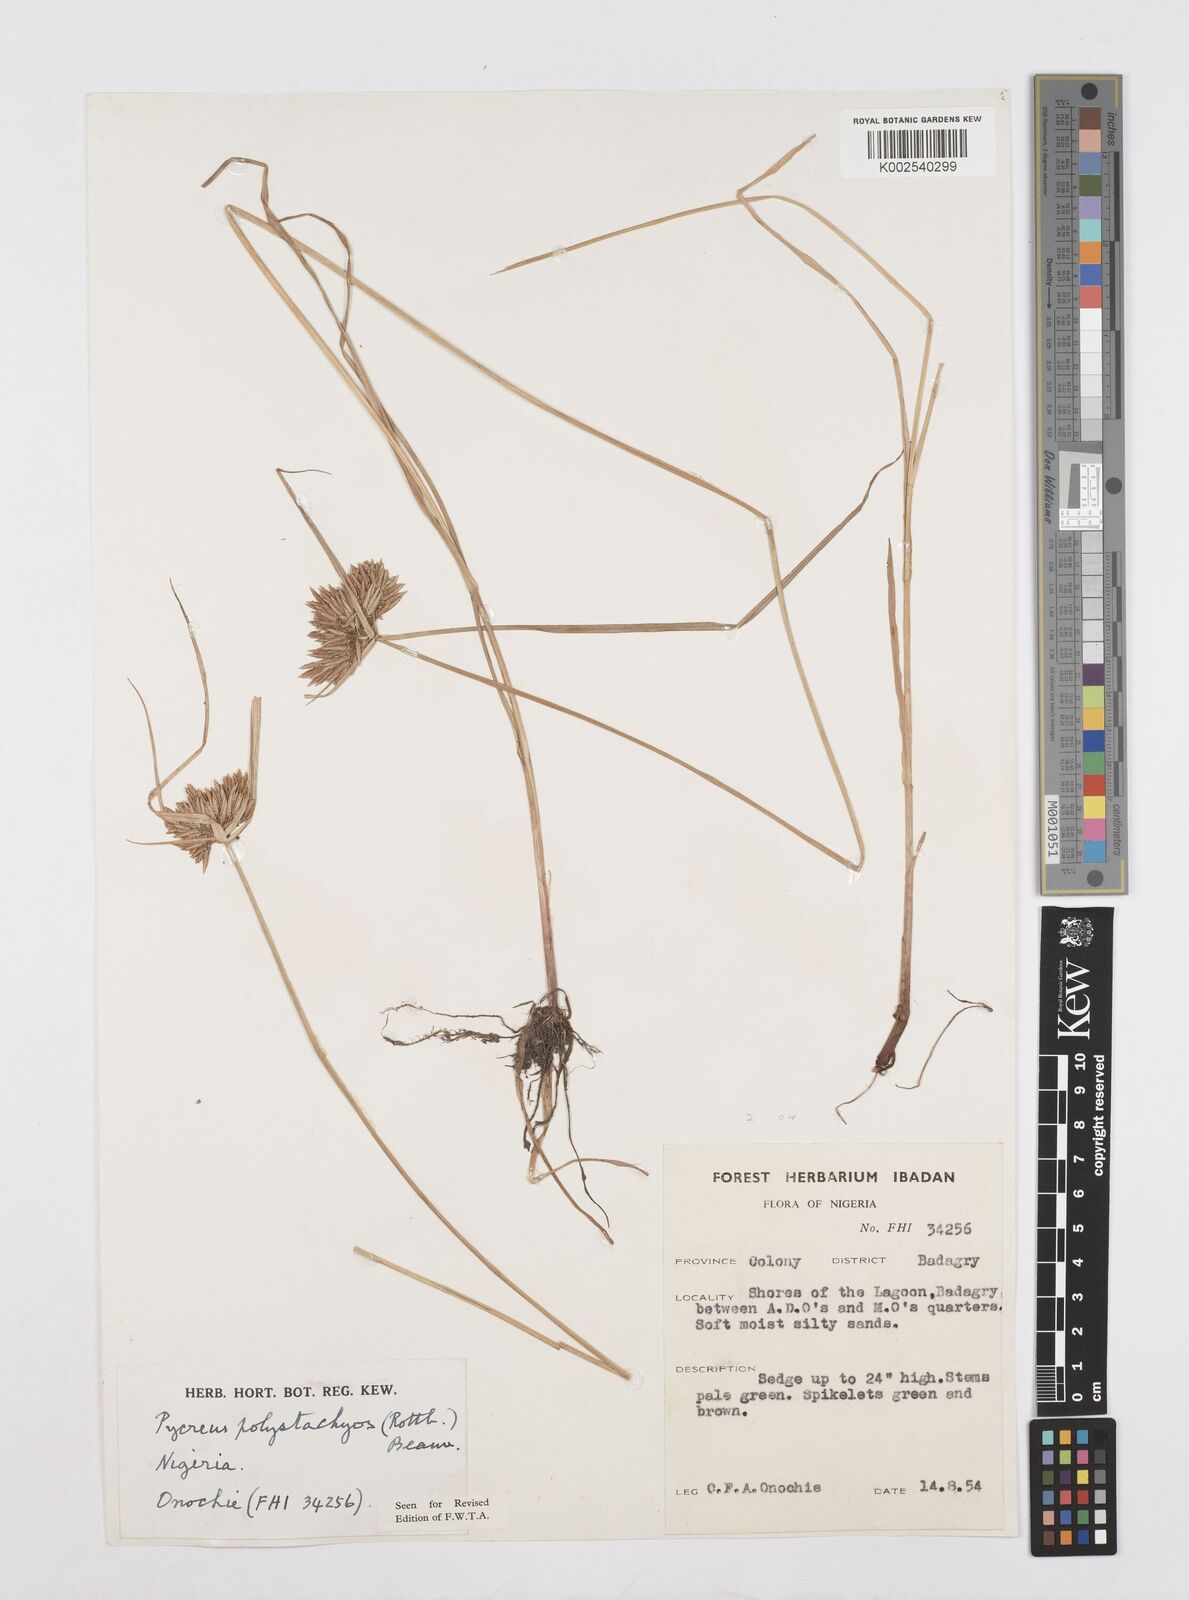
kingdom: Plantae
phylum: Tracheophyta
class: Liliopsida
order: Poales
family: Cyperaceae
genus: Cyperus
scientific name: Cyperus polystachyos
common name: Bunchy flat sedge
